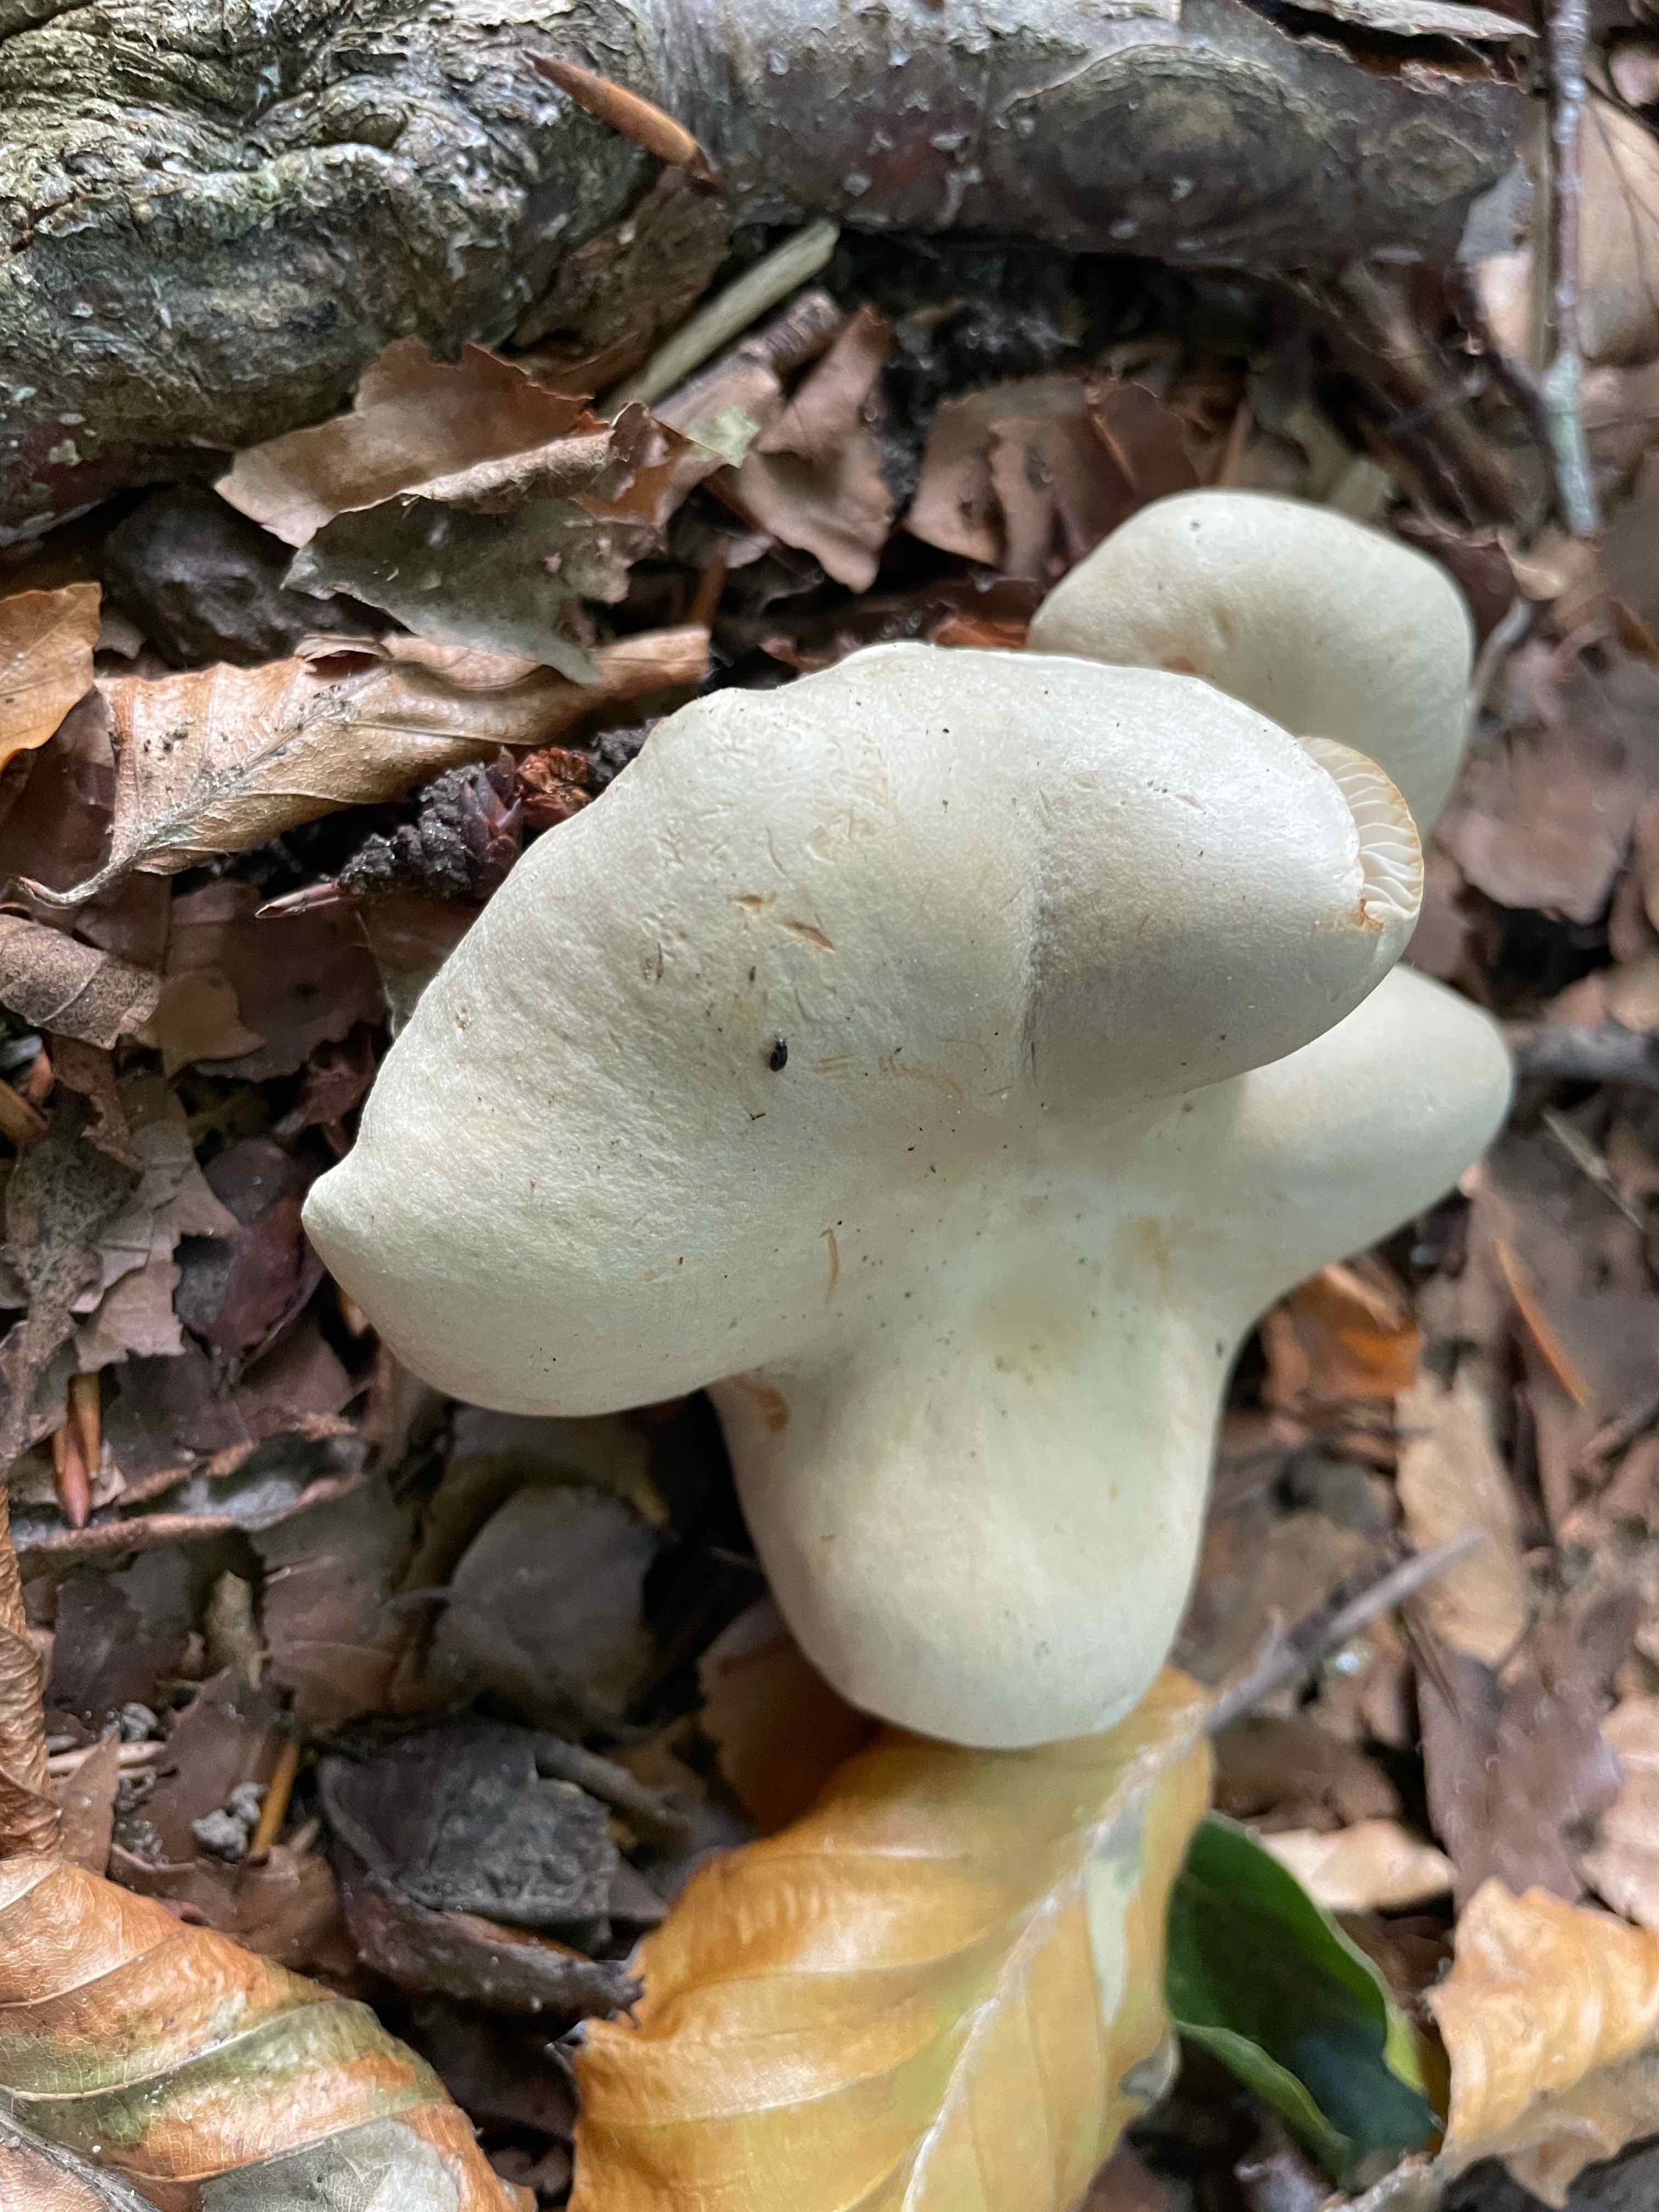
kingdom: Fungi
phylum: Basidiomycota
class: Agaricomycetes
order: Agaricales
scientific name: Agaricales
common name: champignonordenen
